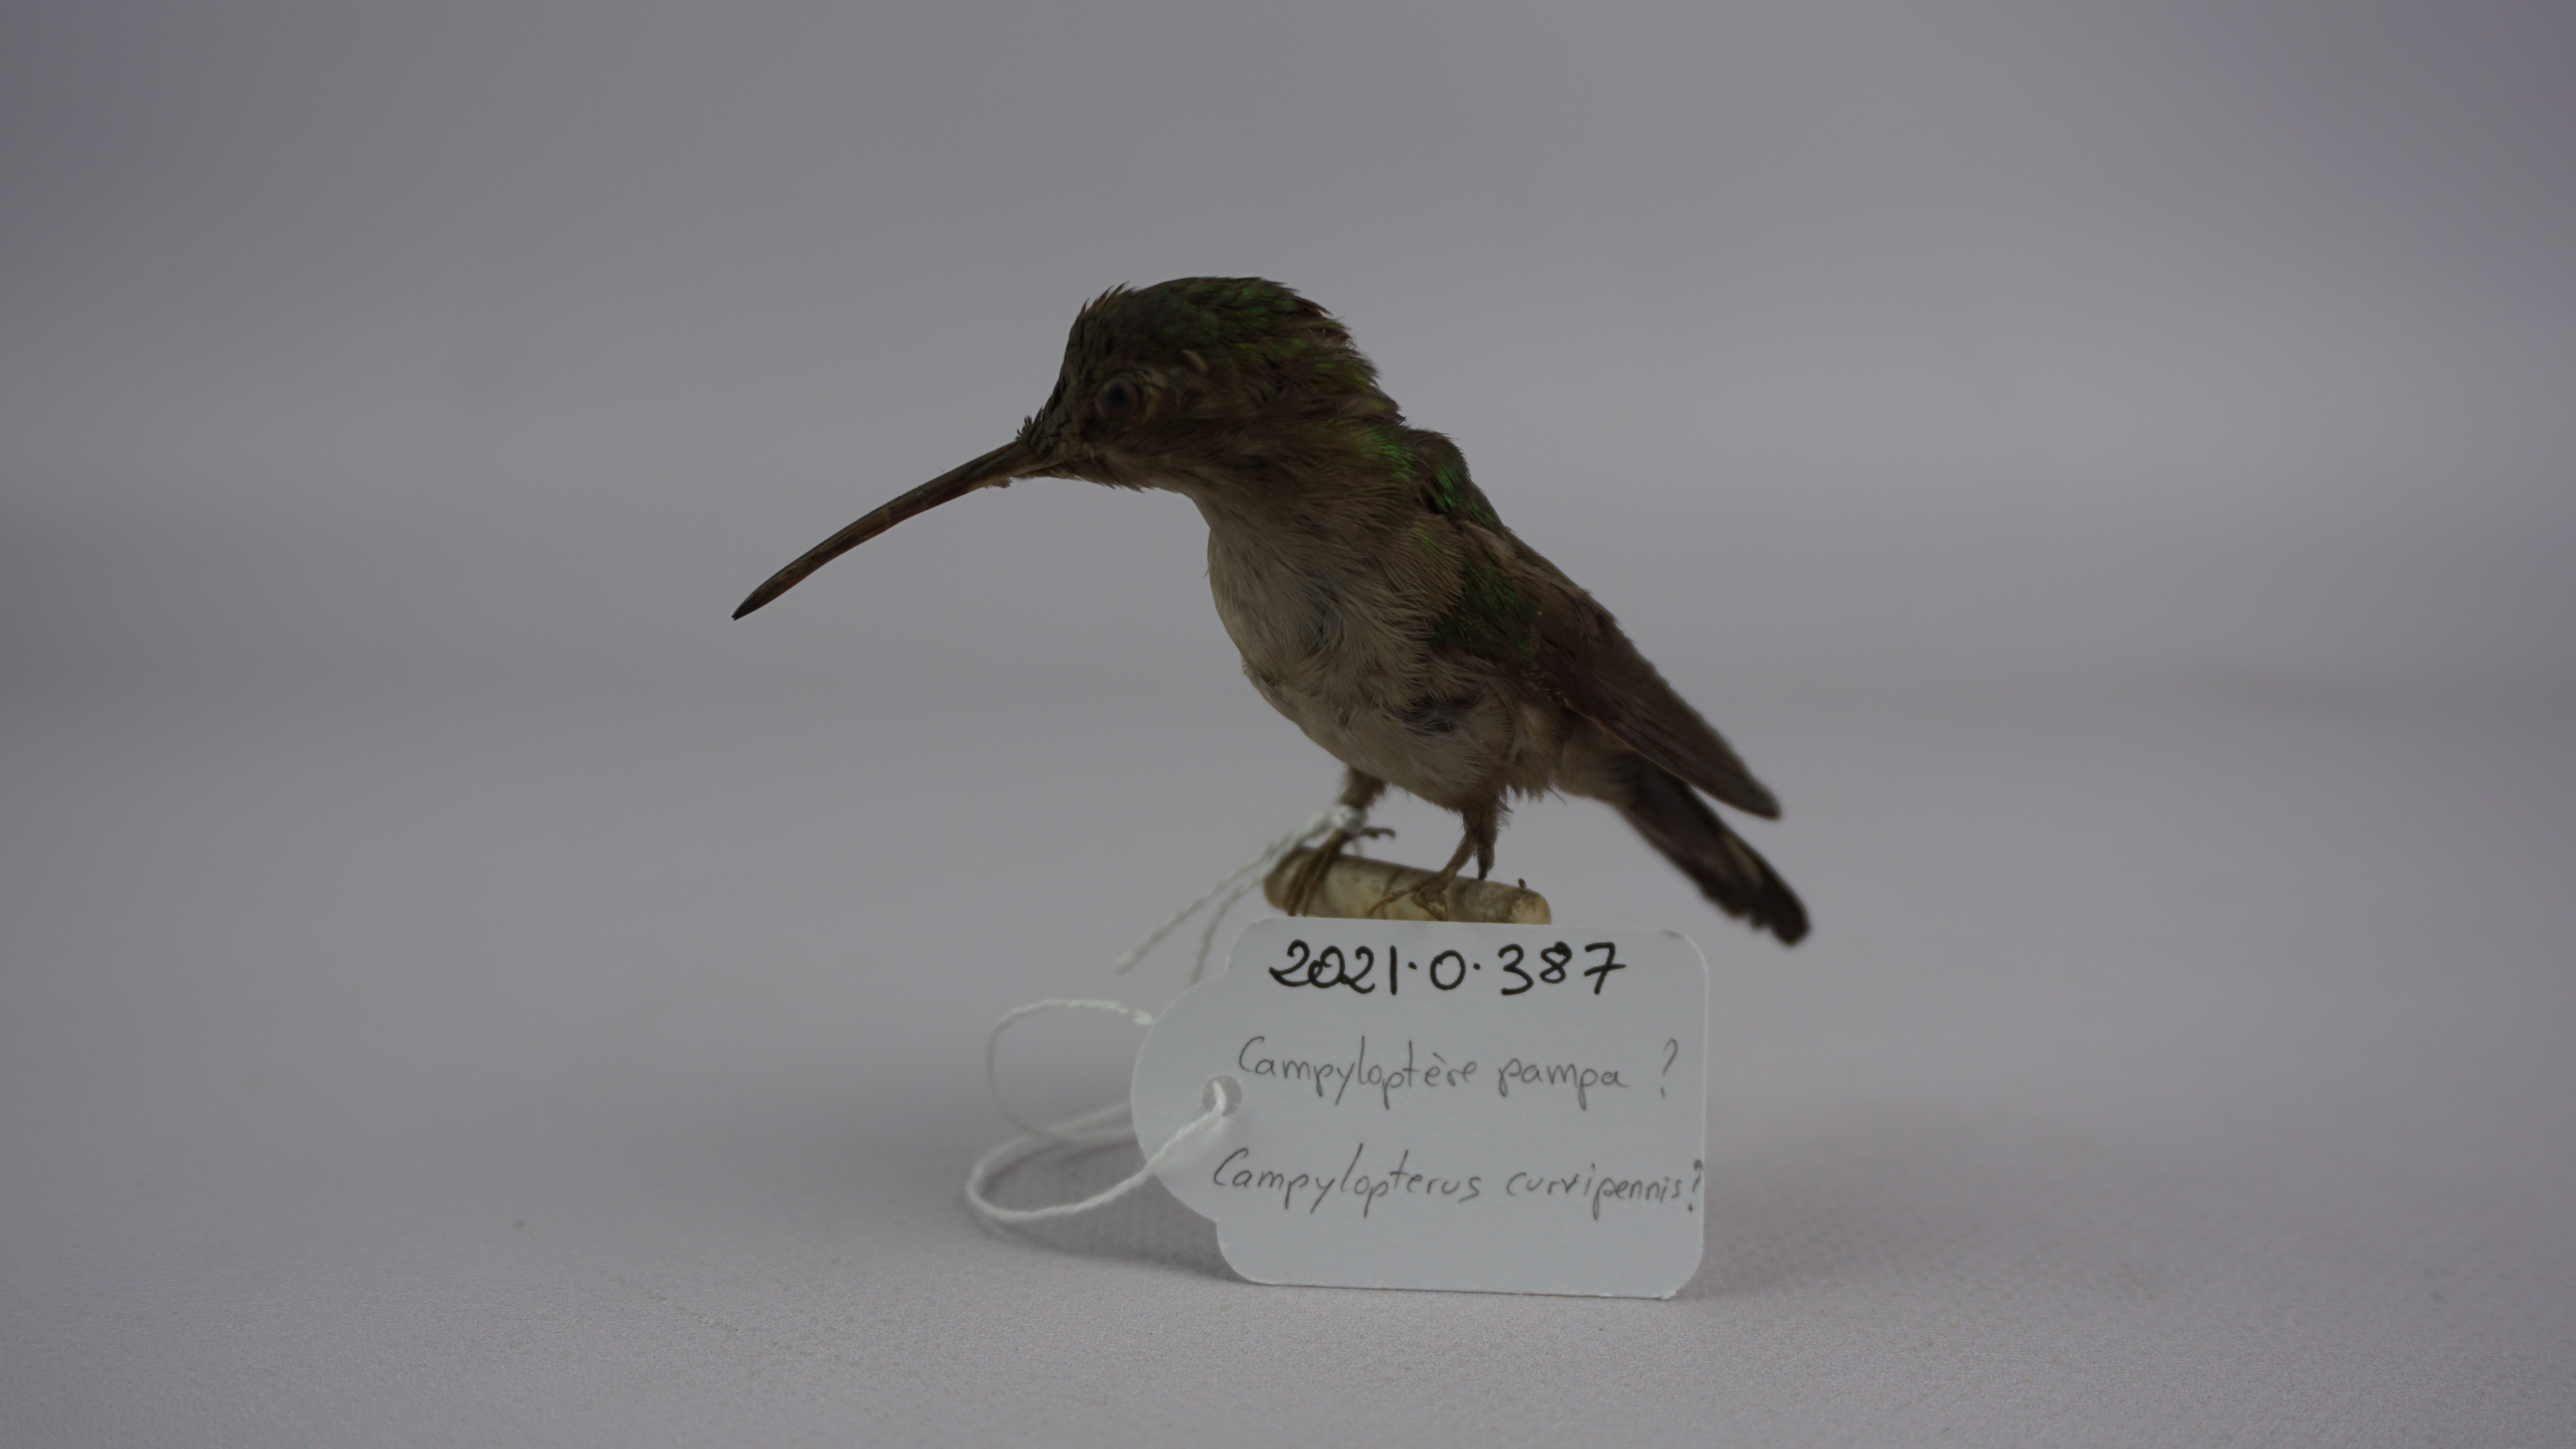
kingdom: Animalia
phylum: Chordata
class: Aves
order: Apodiformes
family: Trochilidae
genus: Pampa
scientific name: Pampa curvipennis
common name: Curve-winged sabrewing
